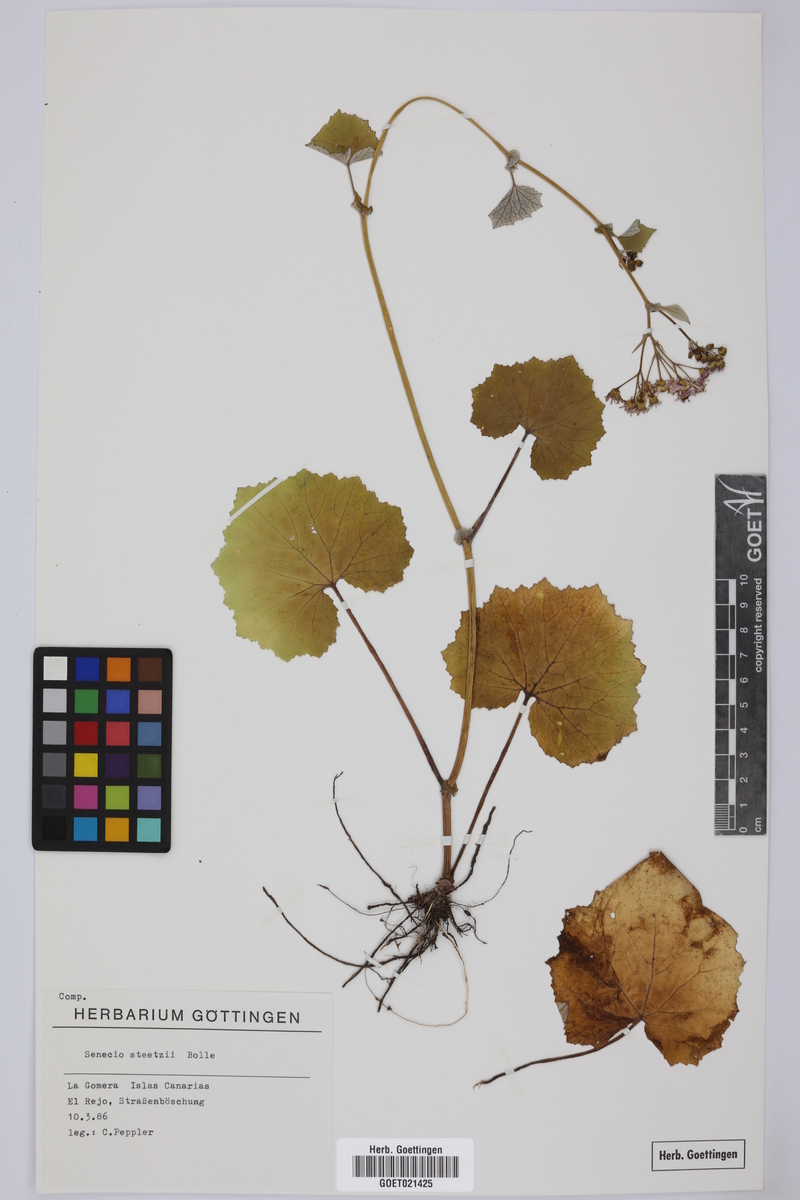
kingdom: Plantae
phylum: Tracheophyta
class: Magnoliopsida
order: Asterales
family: Asteraceae
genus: Pericallis
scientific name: Pericallis steetzii
